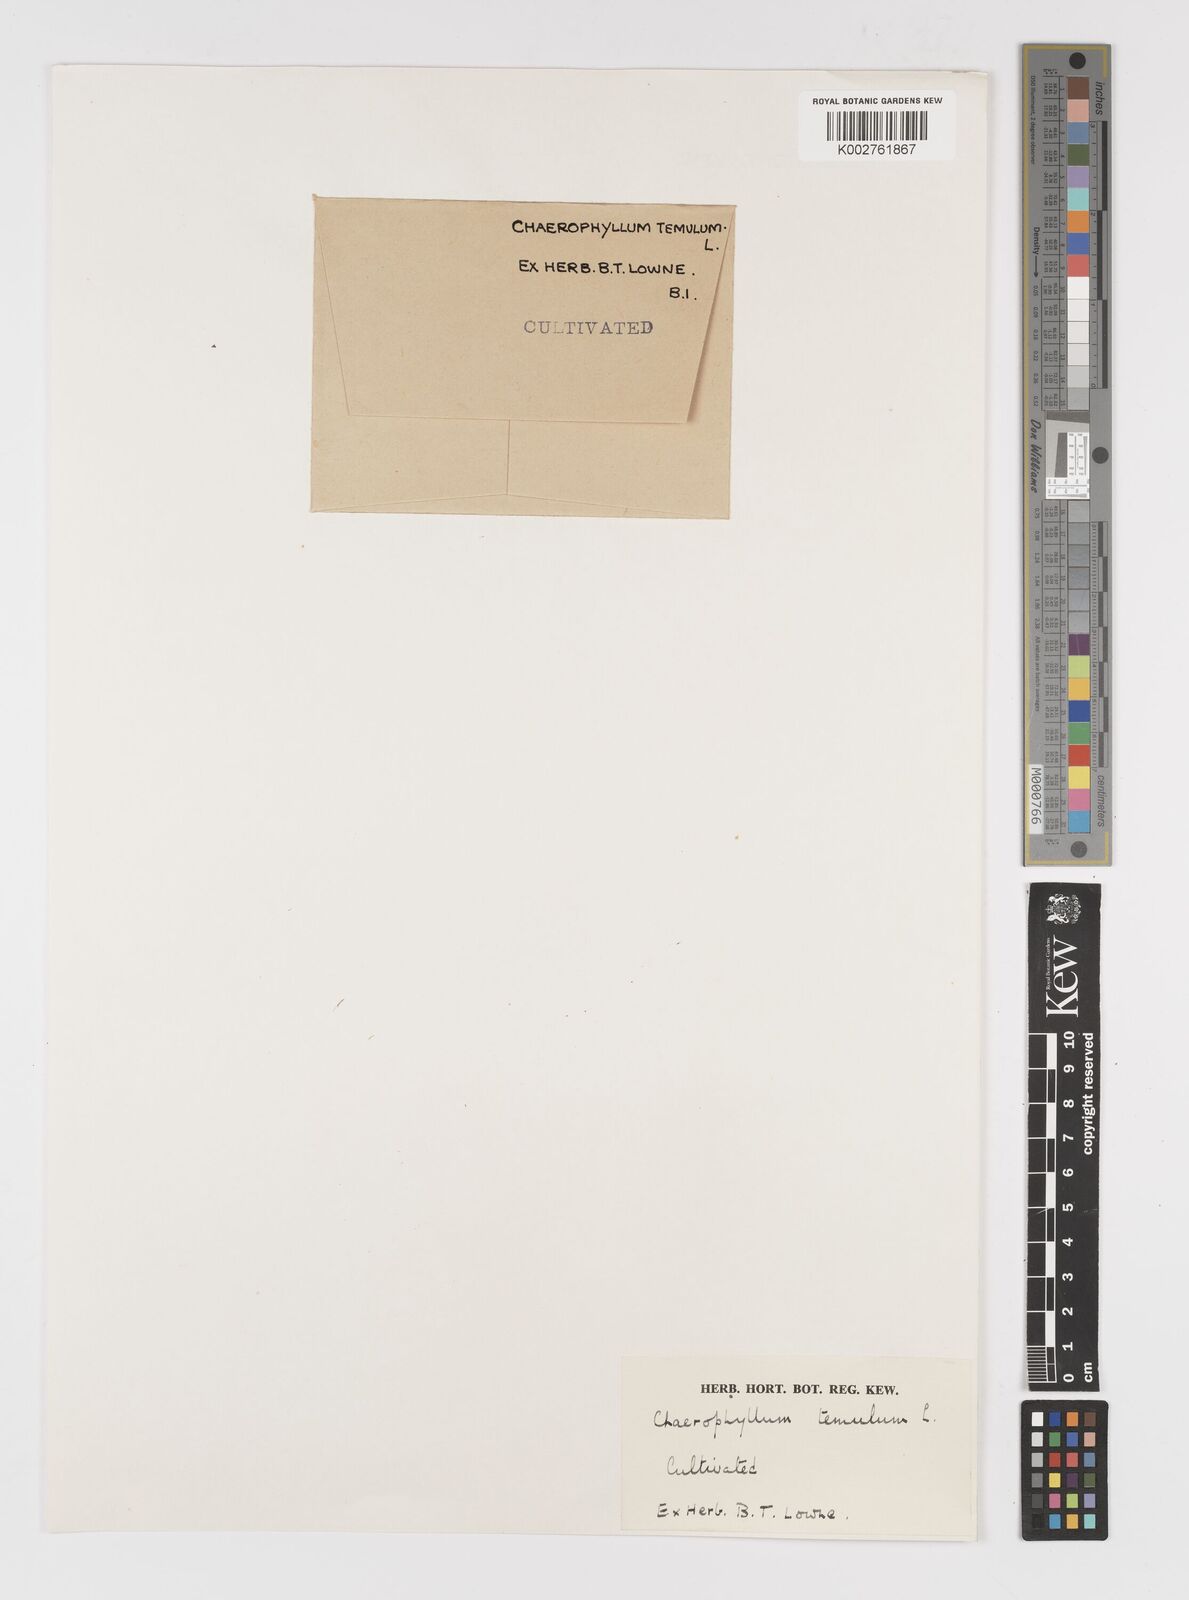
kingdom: Plantae
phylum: Tracheophyta
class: Magnoliopsida
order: Apiales
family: Apiaceae
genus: Chaerophyllum
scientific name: Chaerophyllum temulum
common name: Rough chervil
